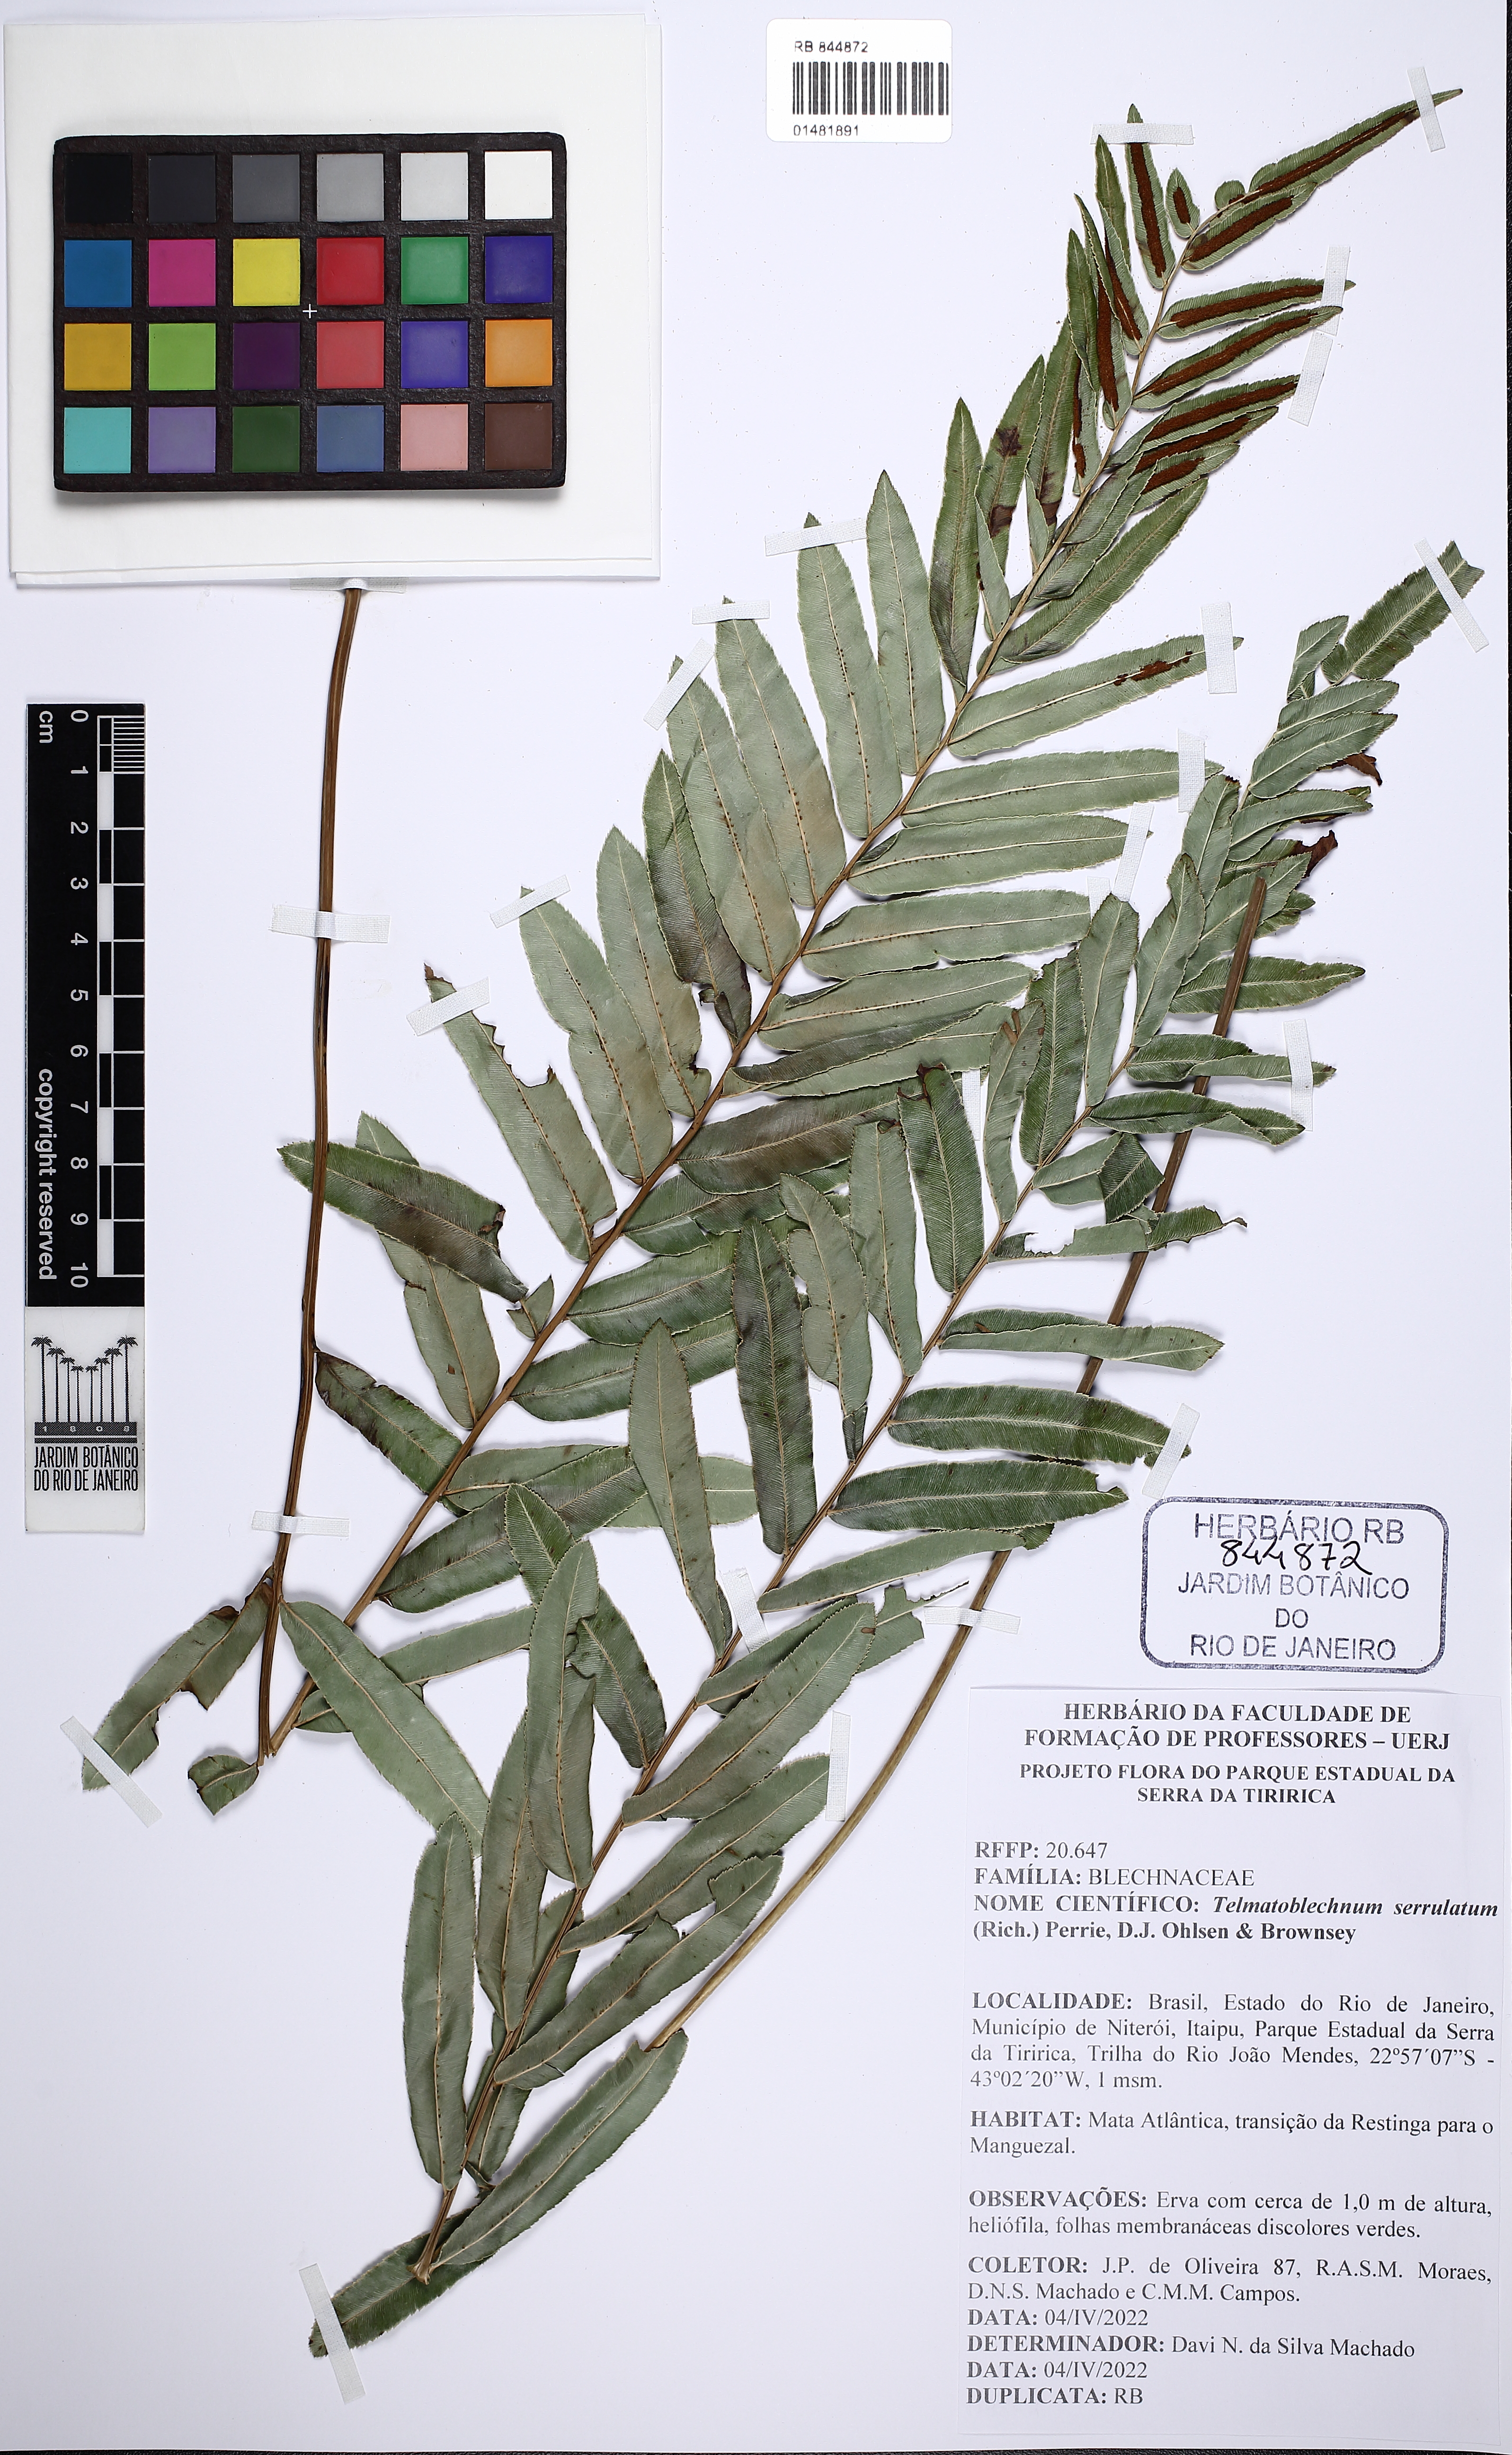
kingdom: Plantae
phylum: Tracheophyta
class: Polypodiopsida
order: Polypodiales
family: Blechnaceae
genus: Telmatoblechnum
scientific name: Telmatoblechnum serrulatum
